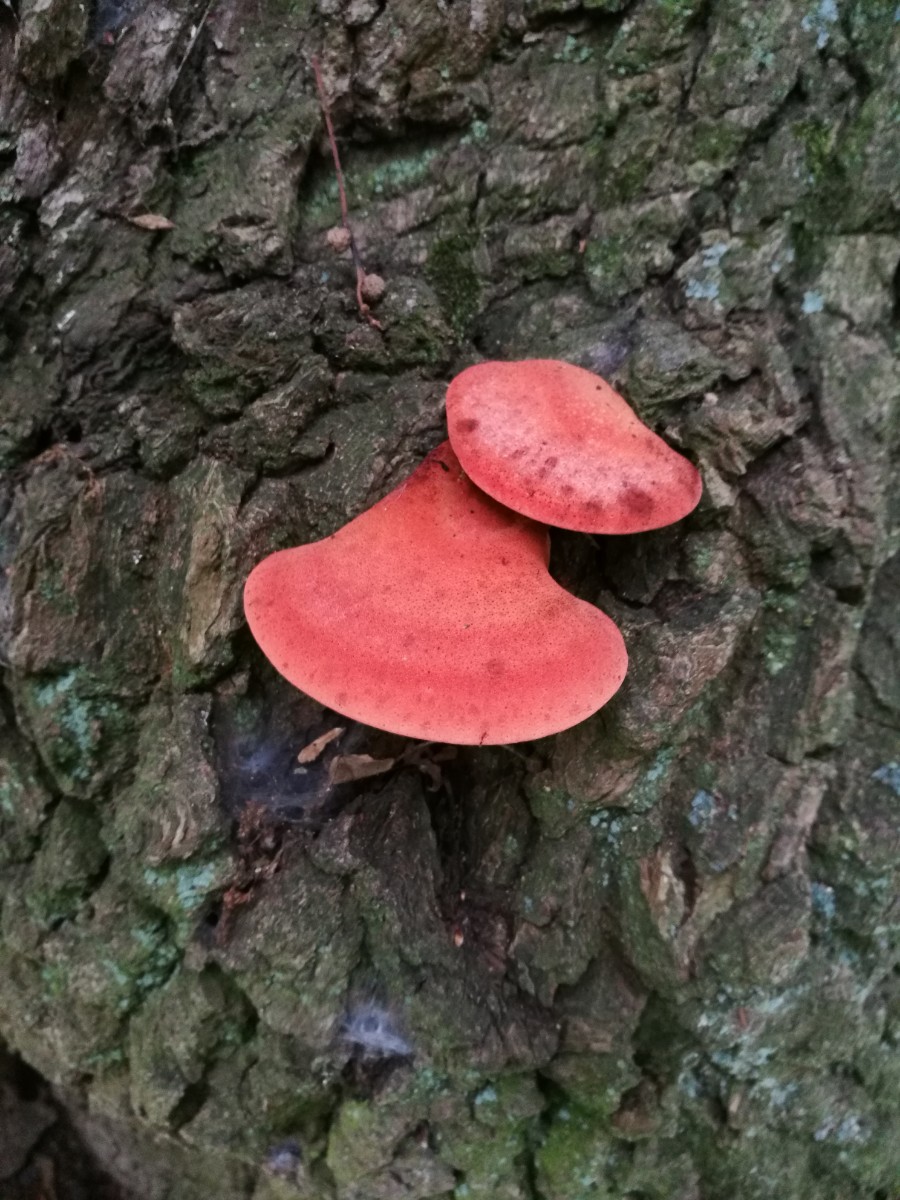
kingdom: Fungi
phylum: Basidiomycota
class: Agaricomycetes
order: Agaricales
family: Fistulinaceae
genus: Fistulina
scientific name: Fistulina hepatica
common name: oksetunge
